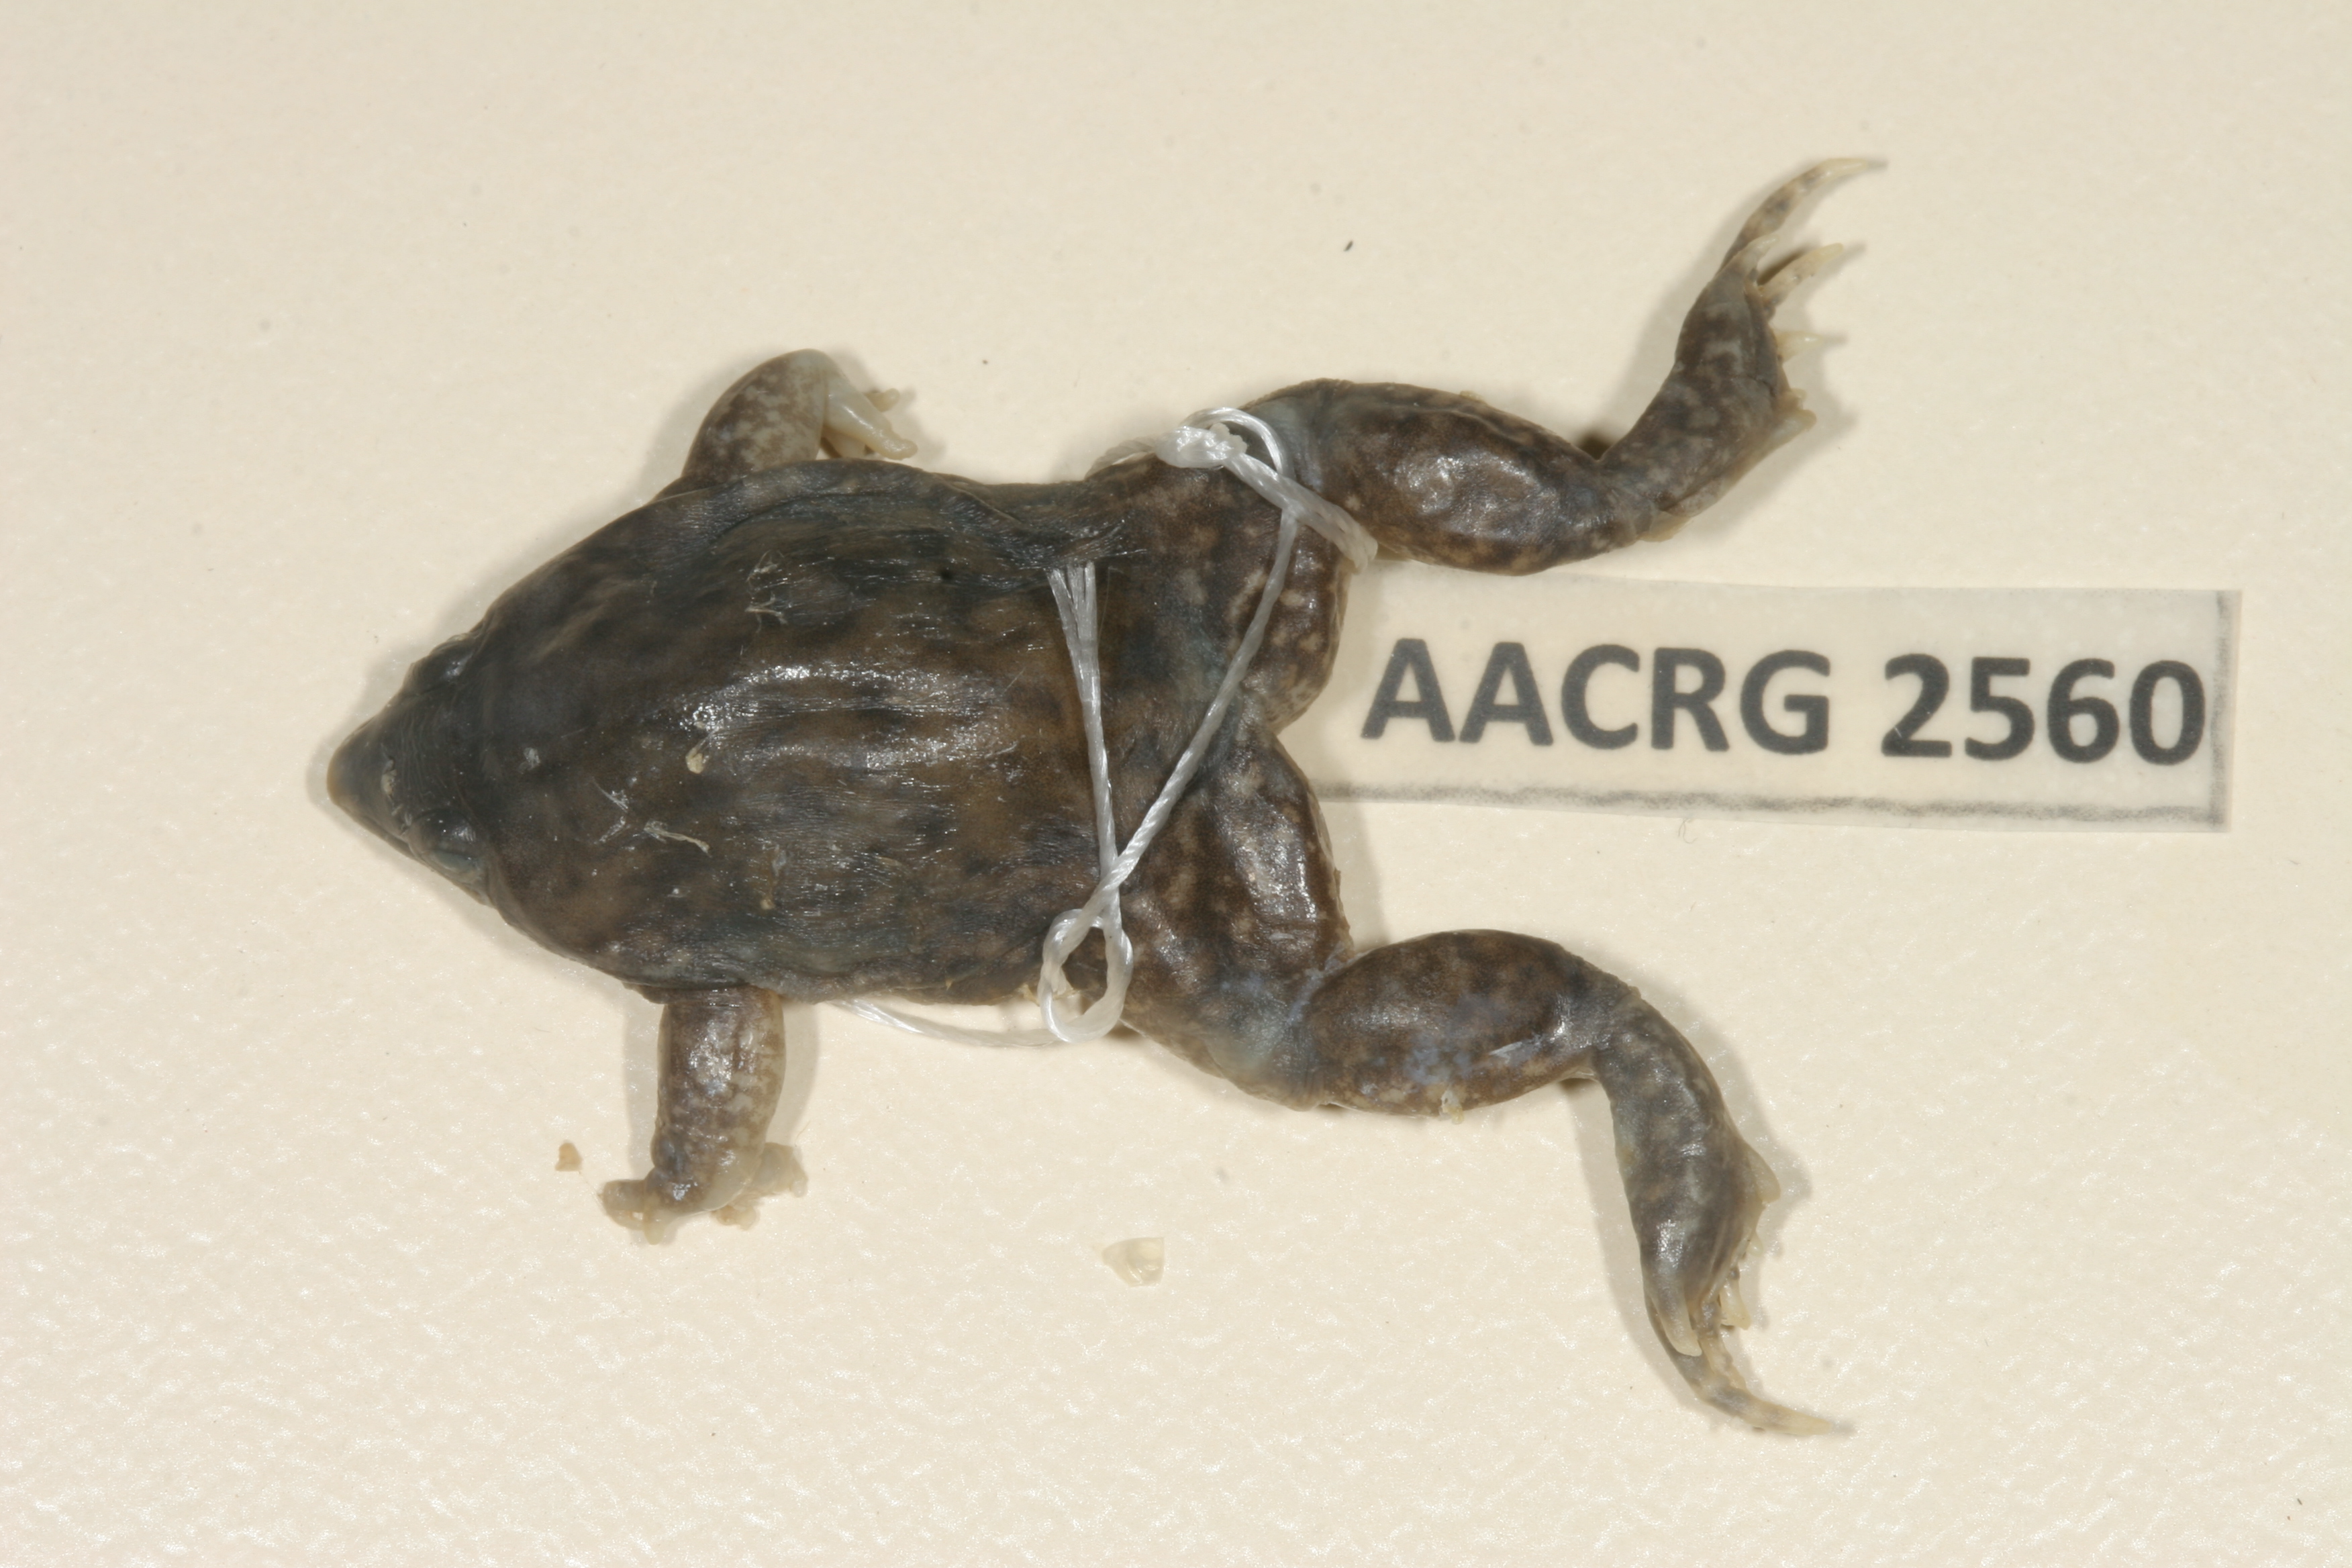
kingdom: Animalia
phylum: Chordata
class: Amphibia
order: Anura
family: Hemisotidae
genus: Hemisus
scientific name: Hemisus marmoratus
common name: Mottled shovel-nosed frog
